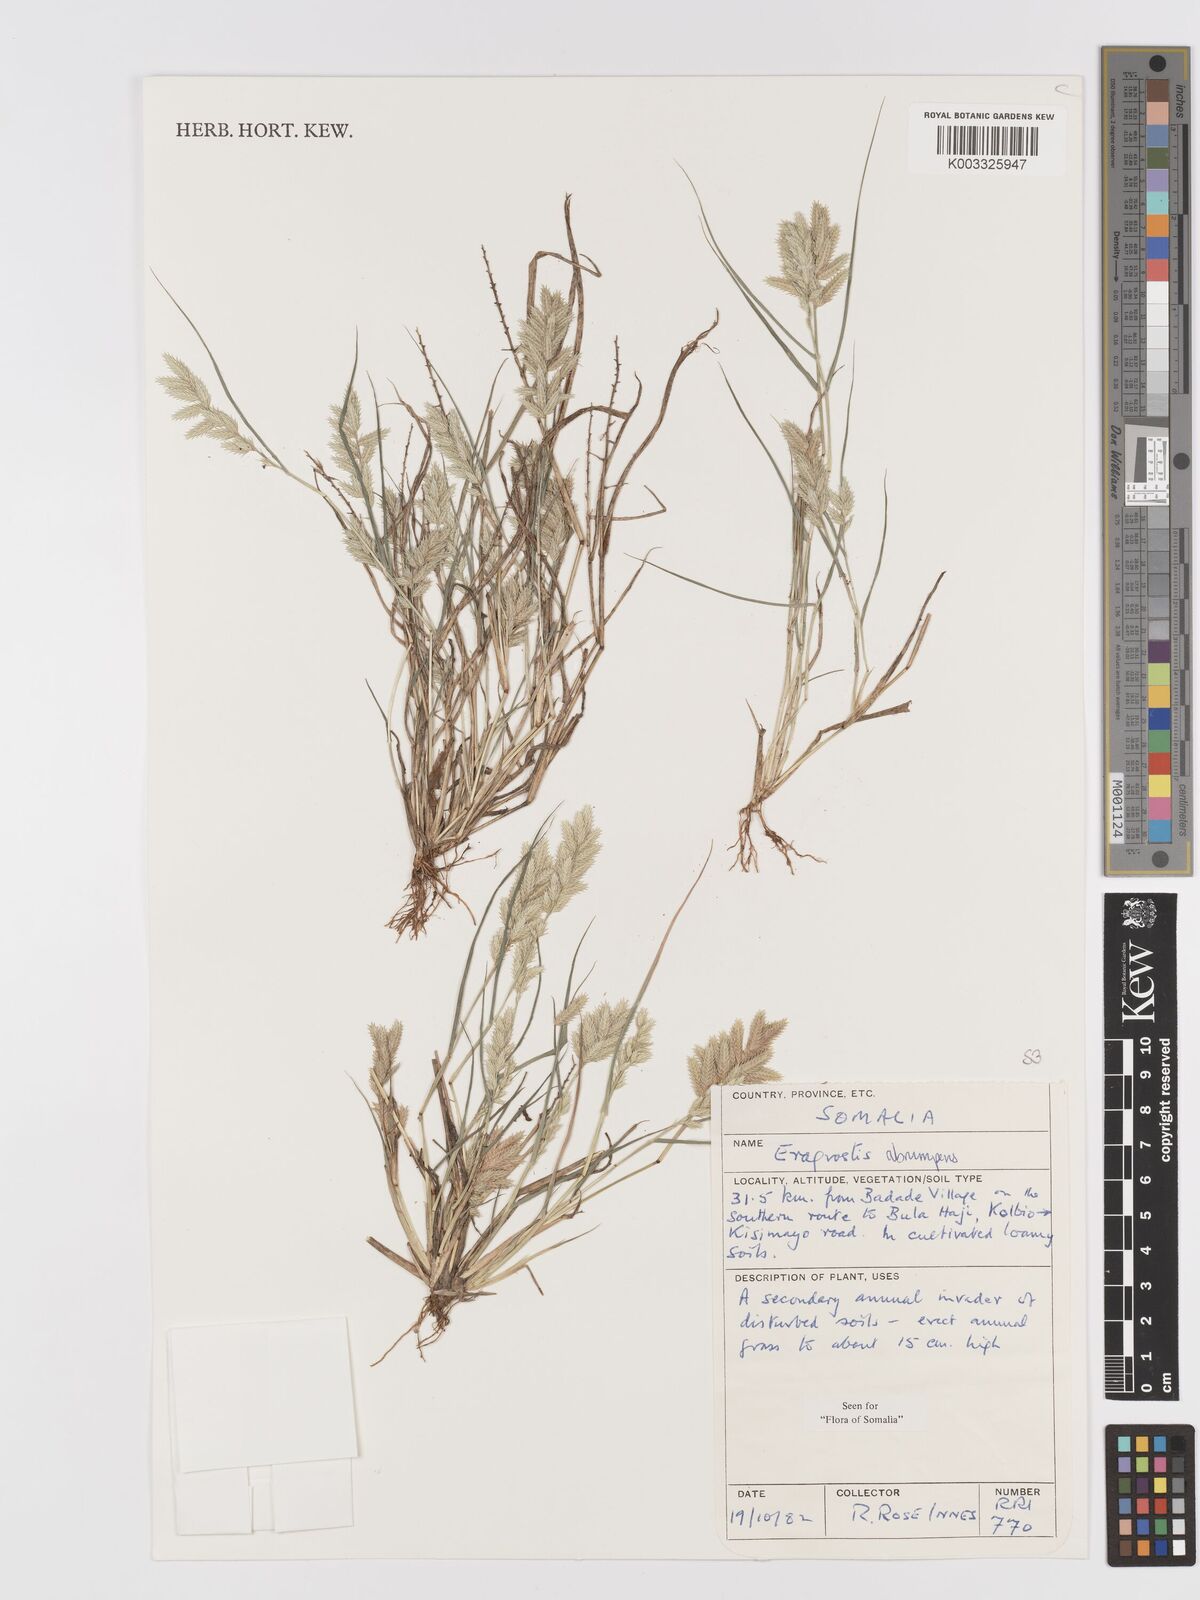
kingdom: Plantae
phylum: Tracheophyta
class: Liliopsida
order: Poales
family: Poaceae
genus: Eragrostis
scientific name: Eragrostis sennii
